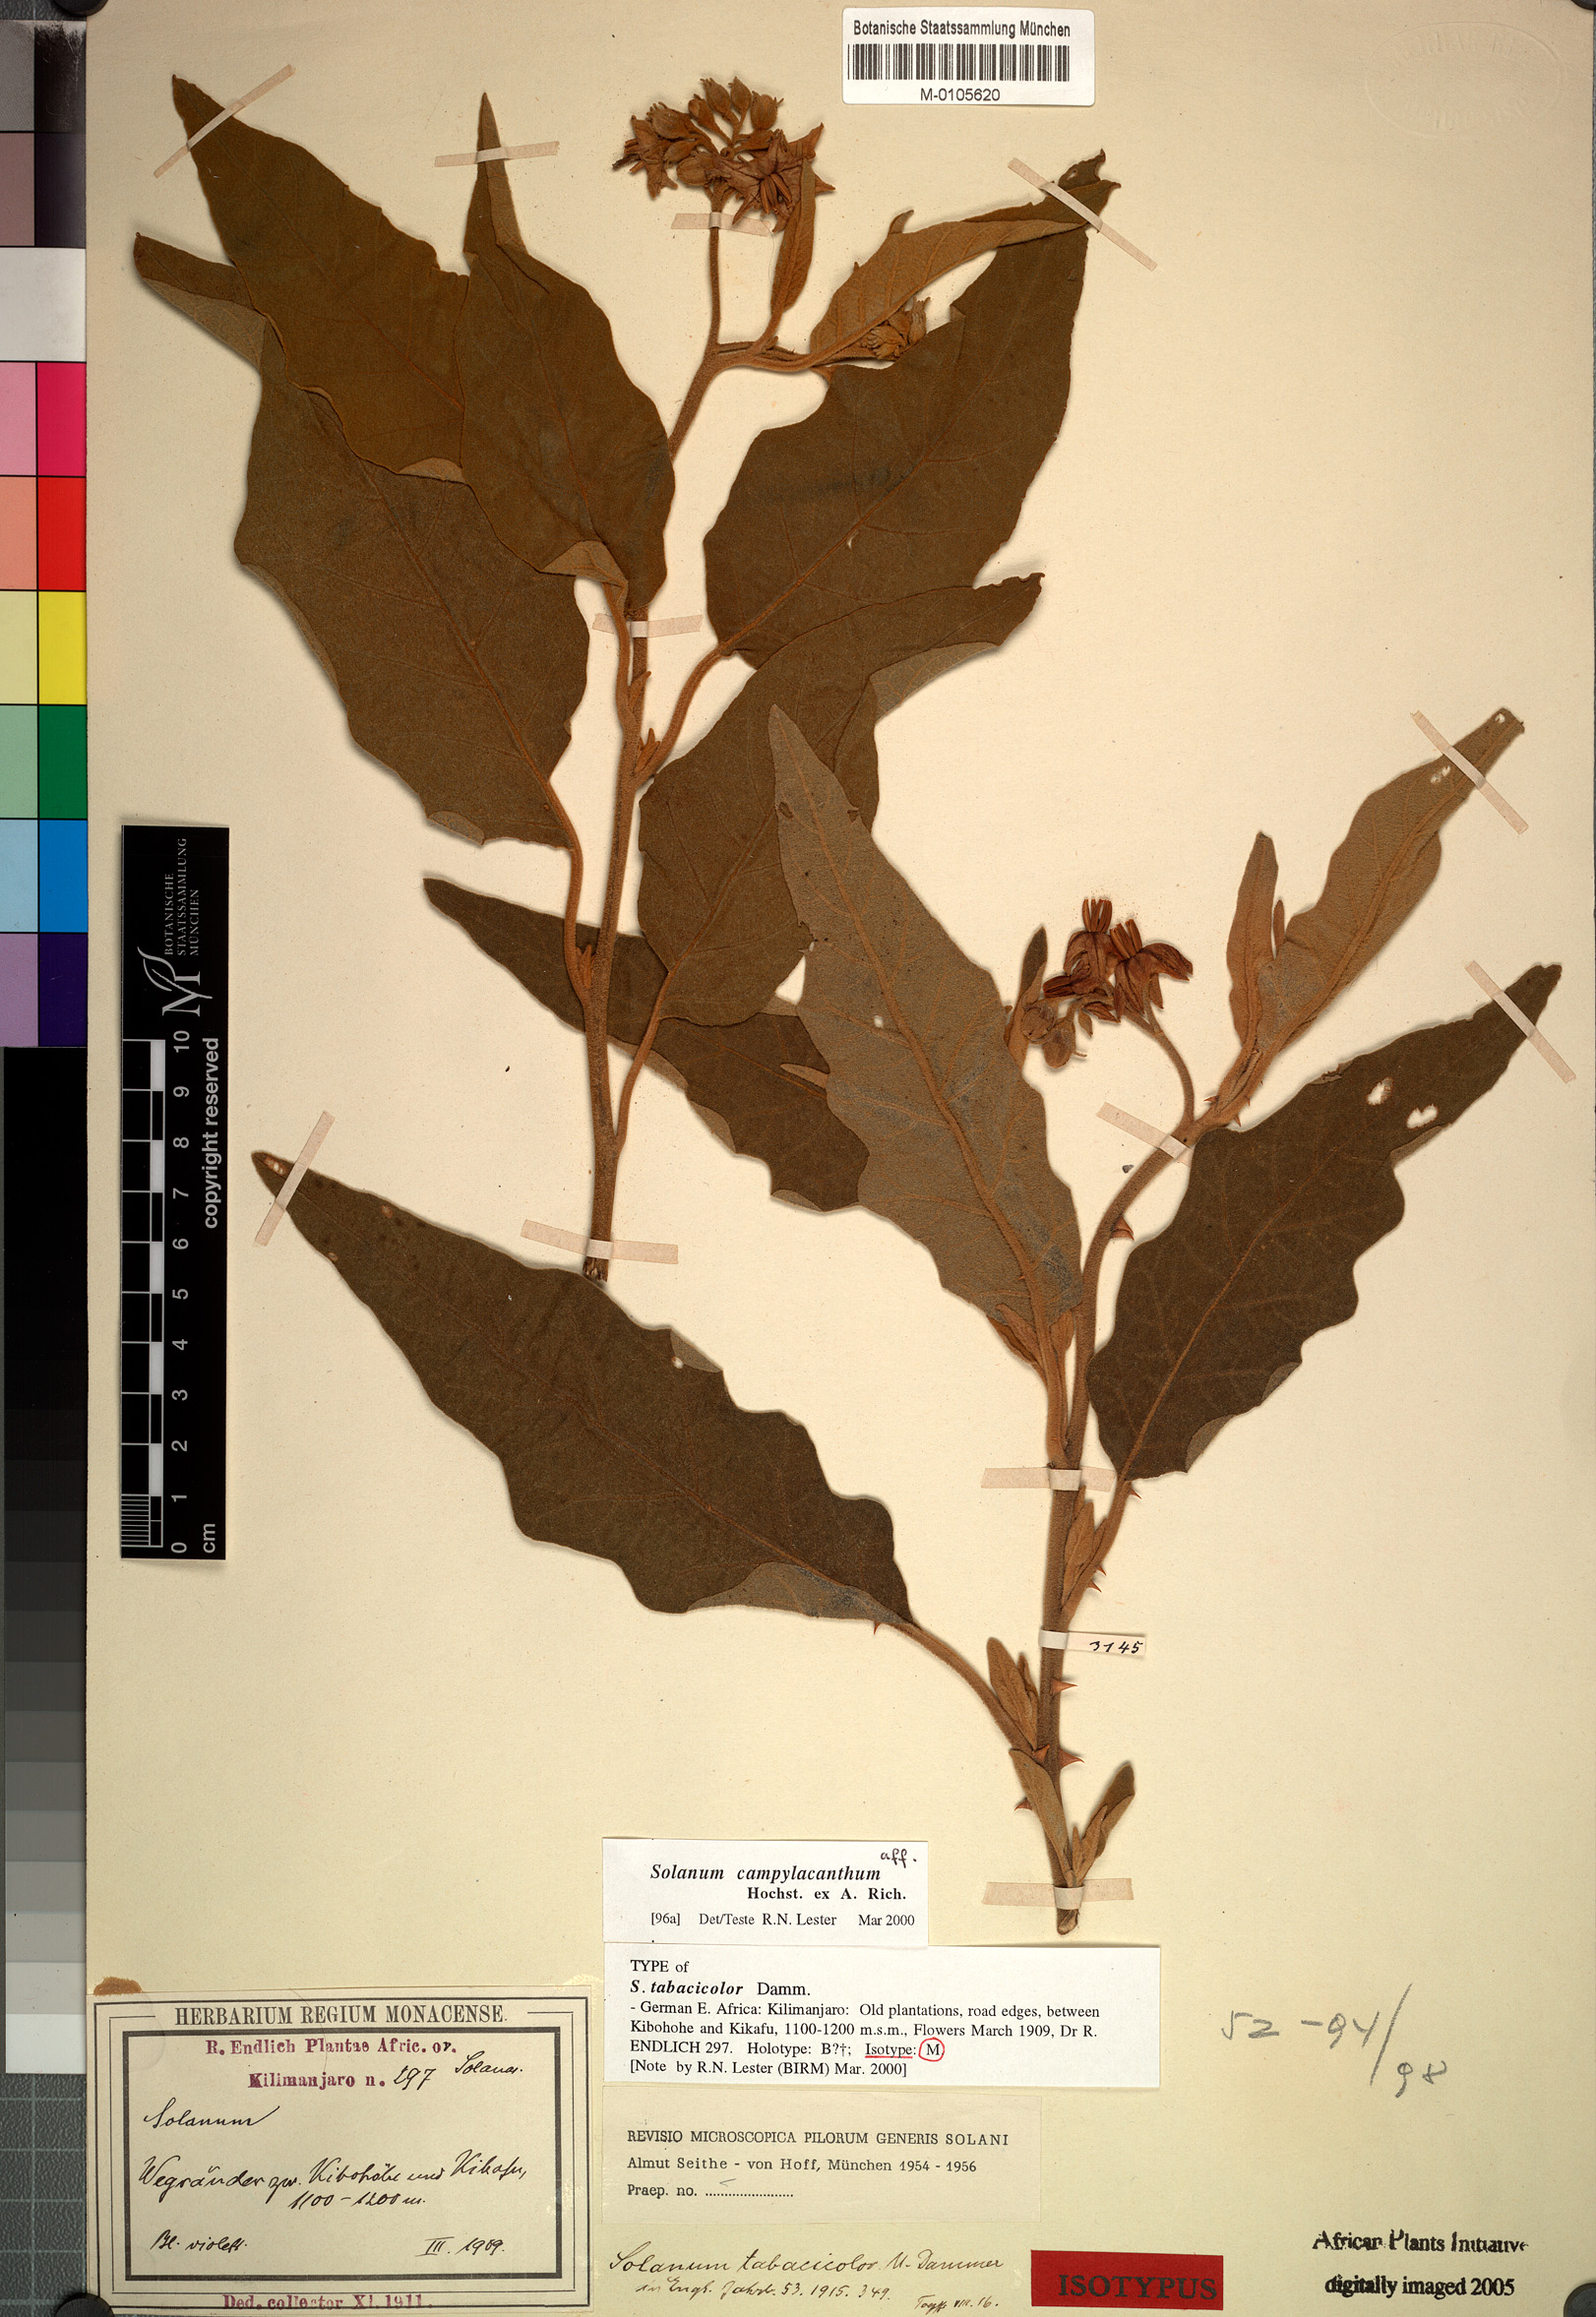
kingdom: Plantae
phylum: Tracheophyta
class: Magnoliopsida
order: Solanales
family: Solanaceae
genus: Solanum
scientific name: Solanum campylacanthum
